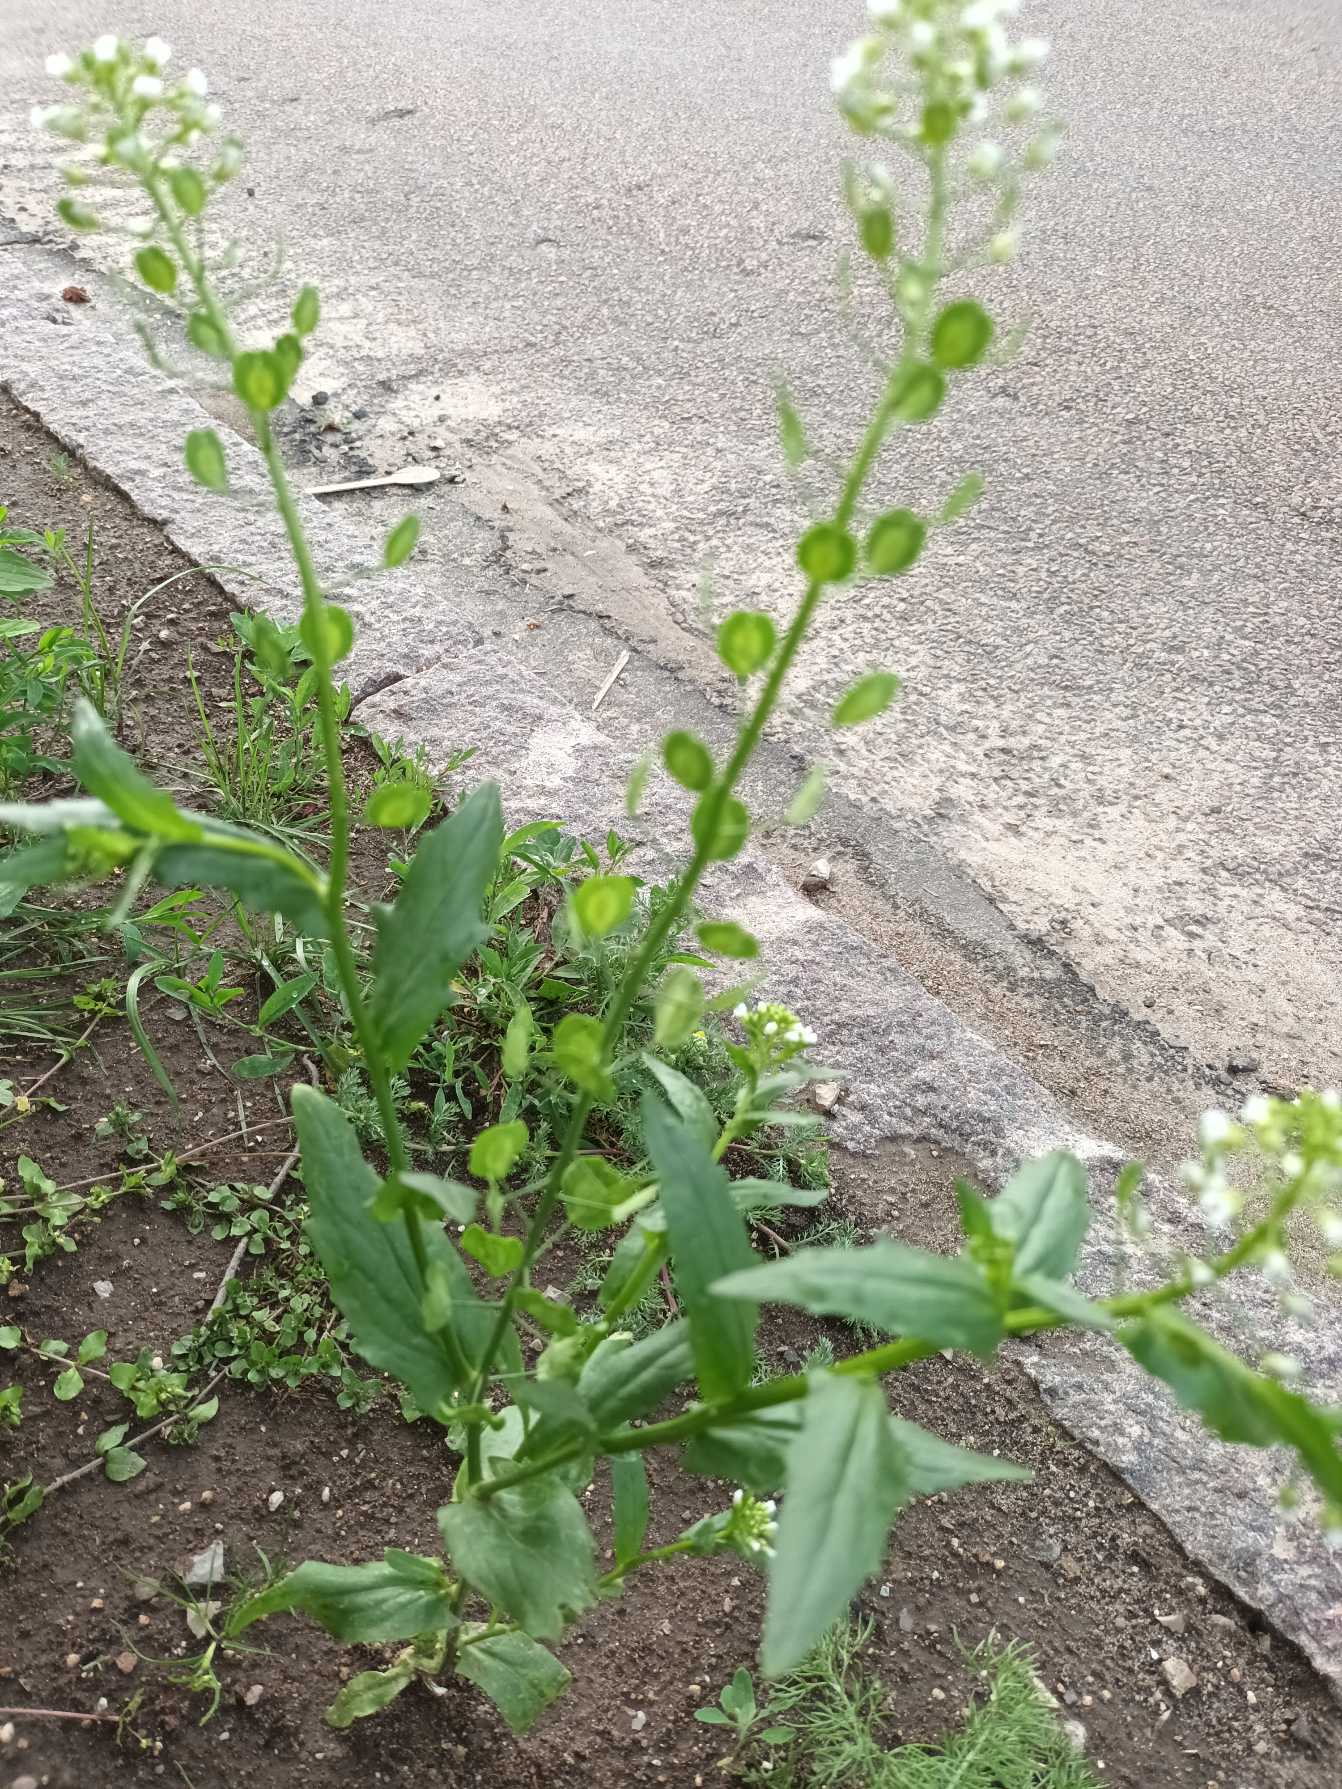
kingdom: Plantae
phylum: Tracheophyta
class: Magnoliopsida
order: Brassicales
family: Brassicaceae
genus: Thlaspi
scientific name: Thlaspi arvense
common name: Almindelig pengeurt
